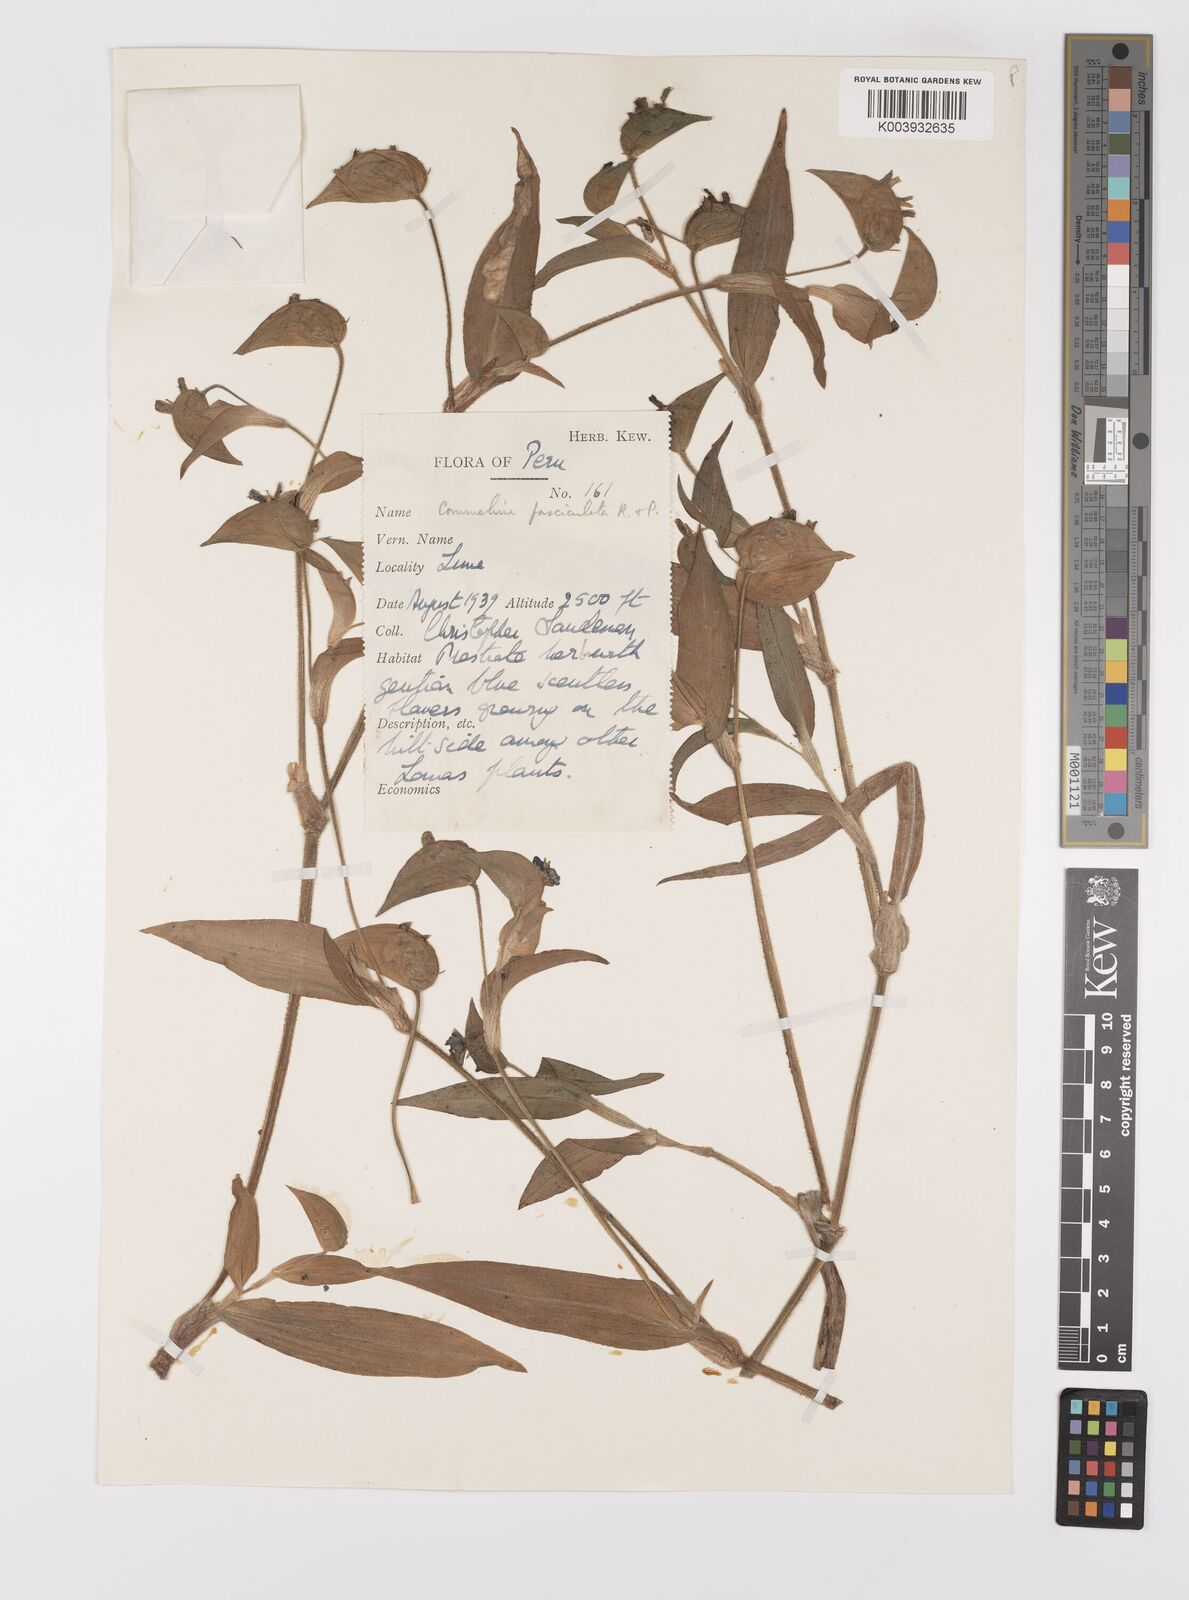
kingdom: Plantae
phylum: Tracheophyta
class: Liliopsida
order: Commelinales
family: Commelinaceae
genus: Commelina
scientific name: Commelina tuberosa
